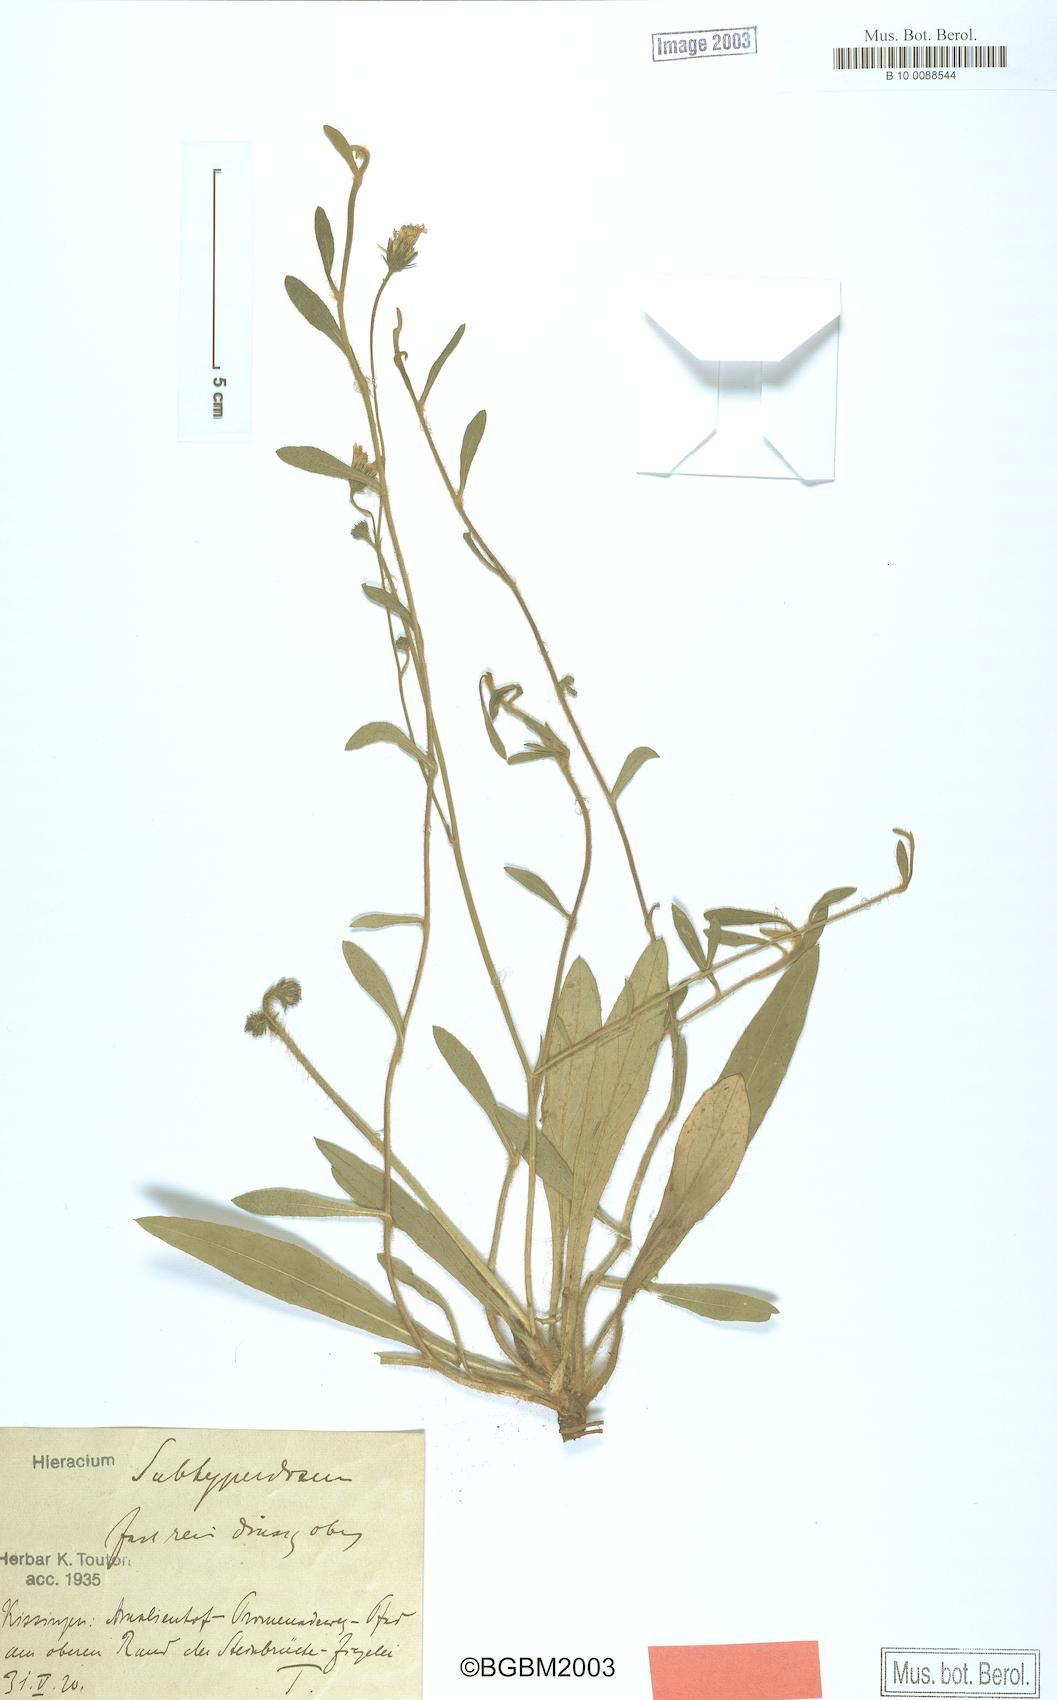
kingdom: Plantae
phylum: Tracheophyta
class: Magnoliopsida
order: Asterales
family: Asteraceae
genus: Pilosella
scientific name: Pilosella pilosellina
